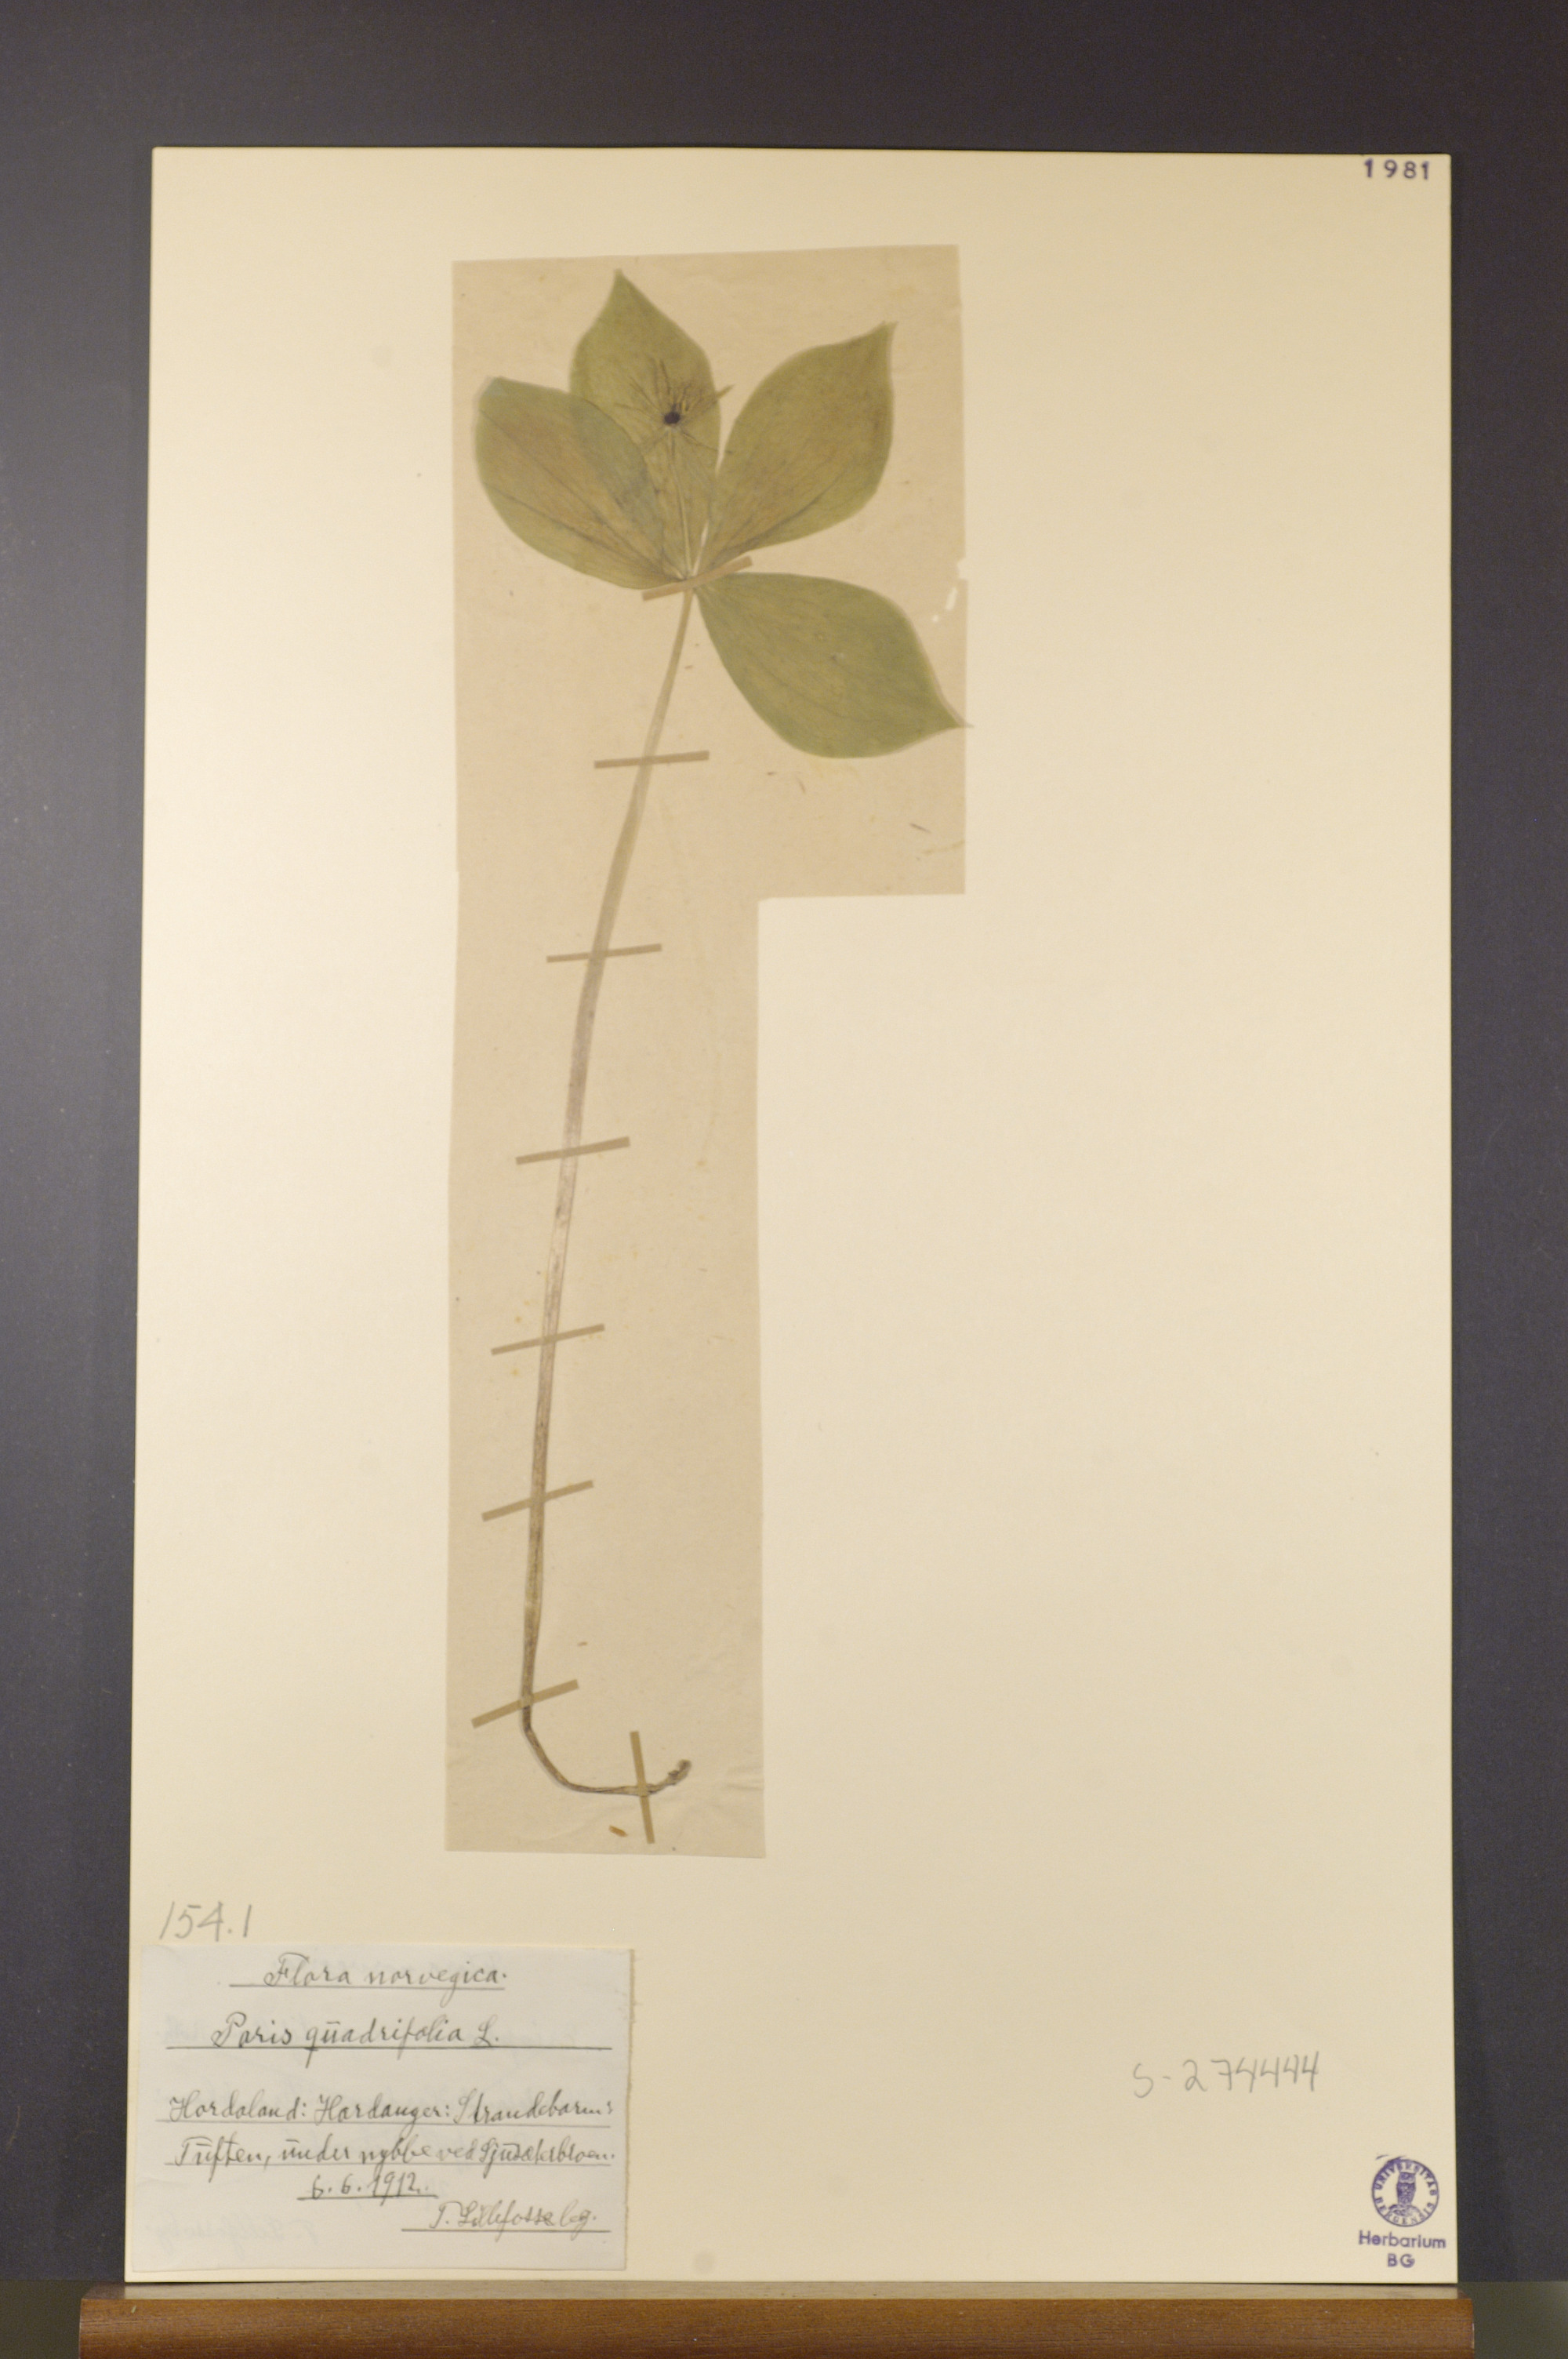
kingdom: Plantae
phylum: Tracheophyta
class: Liliopsida
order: Liliales
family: Melanthiaceae
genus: Paris
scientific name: Paris quadrifolia
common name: Herb-paris
